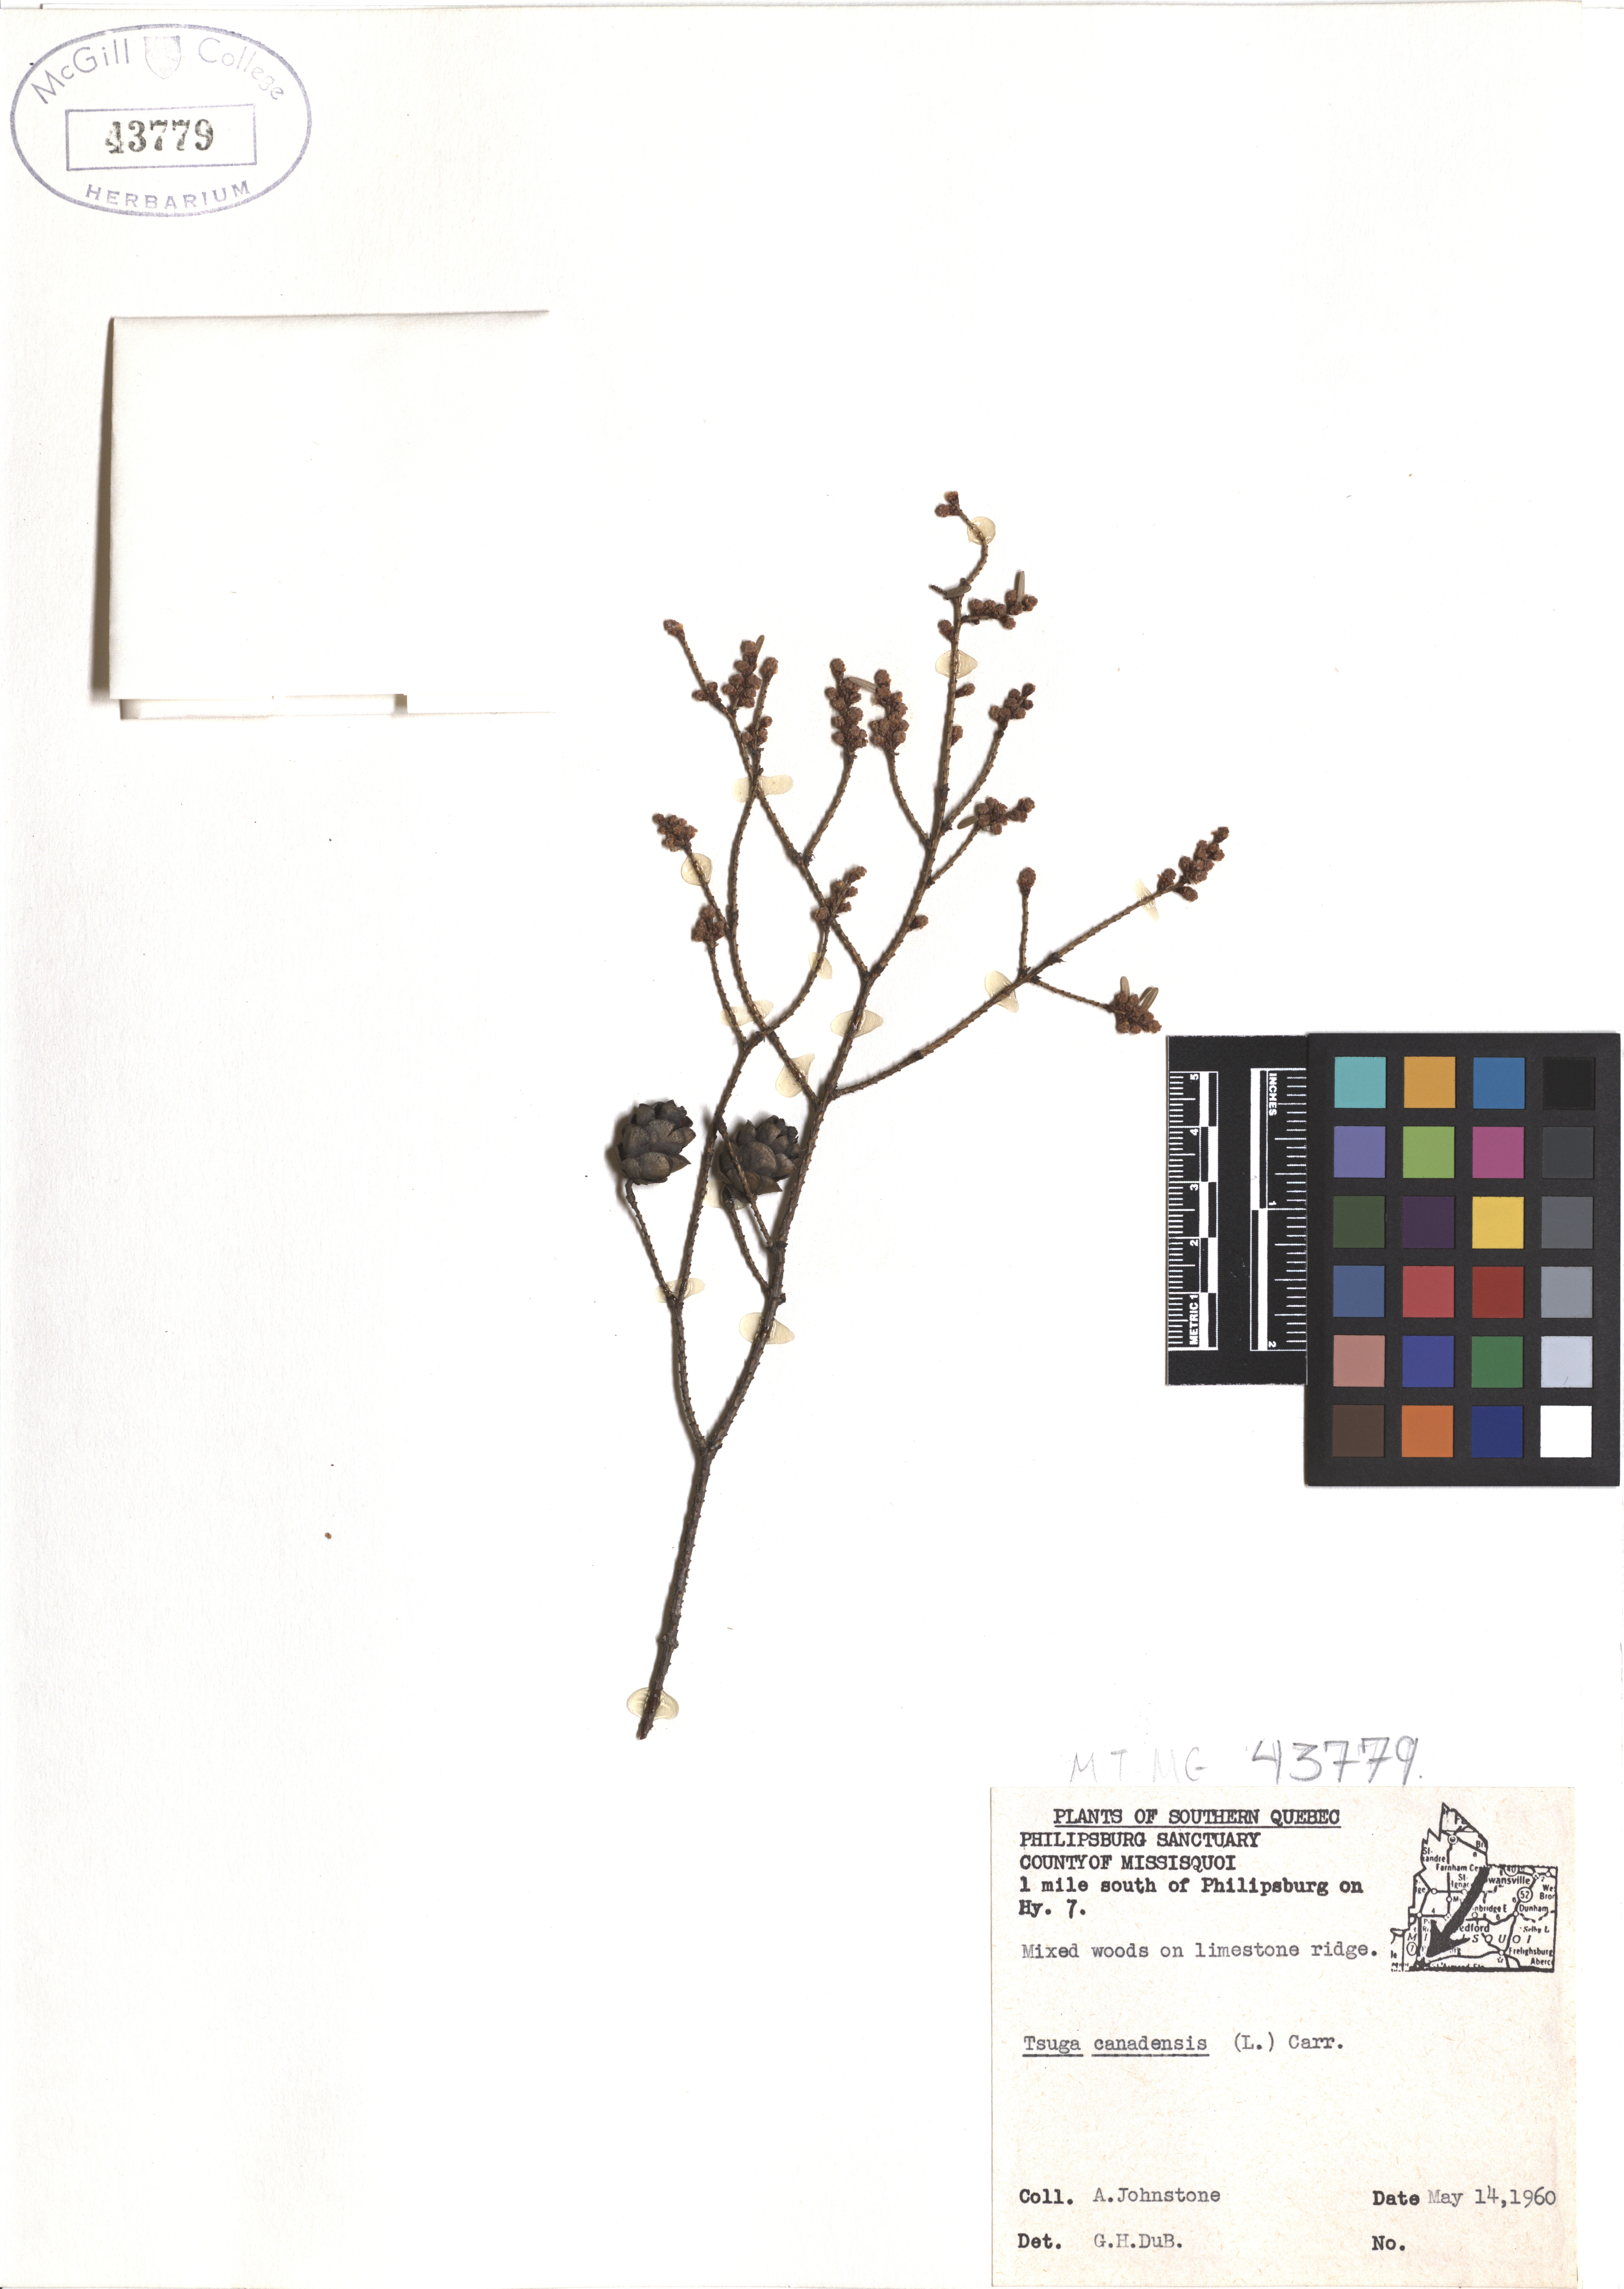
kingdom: Plantae
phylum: Tracheophyta
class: Pinopsida
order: Pinales
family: Pinaceae
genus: Tsuga
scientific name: Tsuga canadensis
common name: Eastern hemlock
